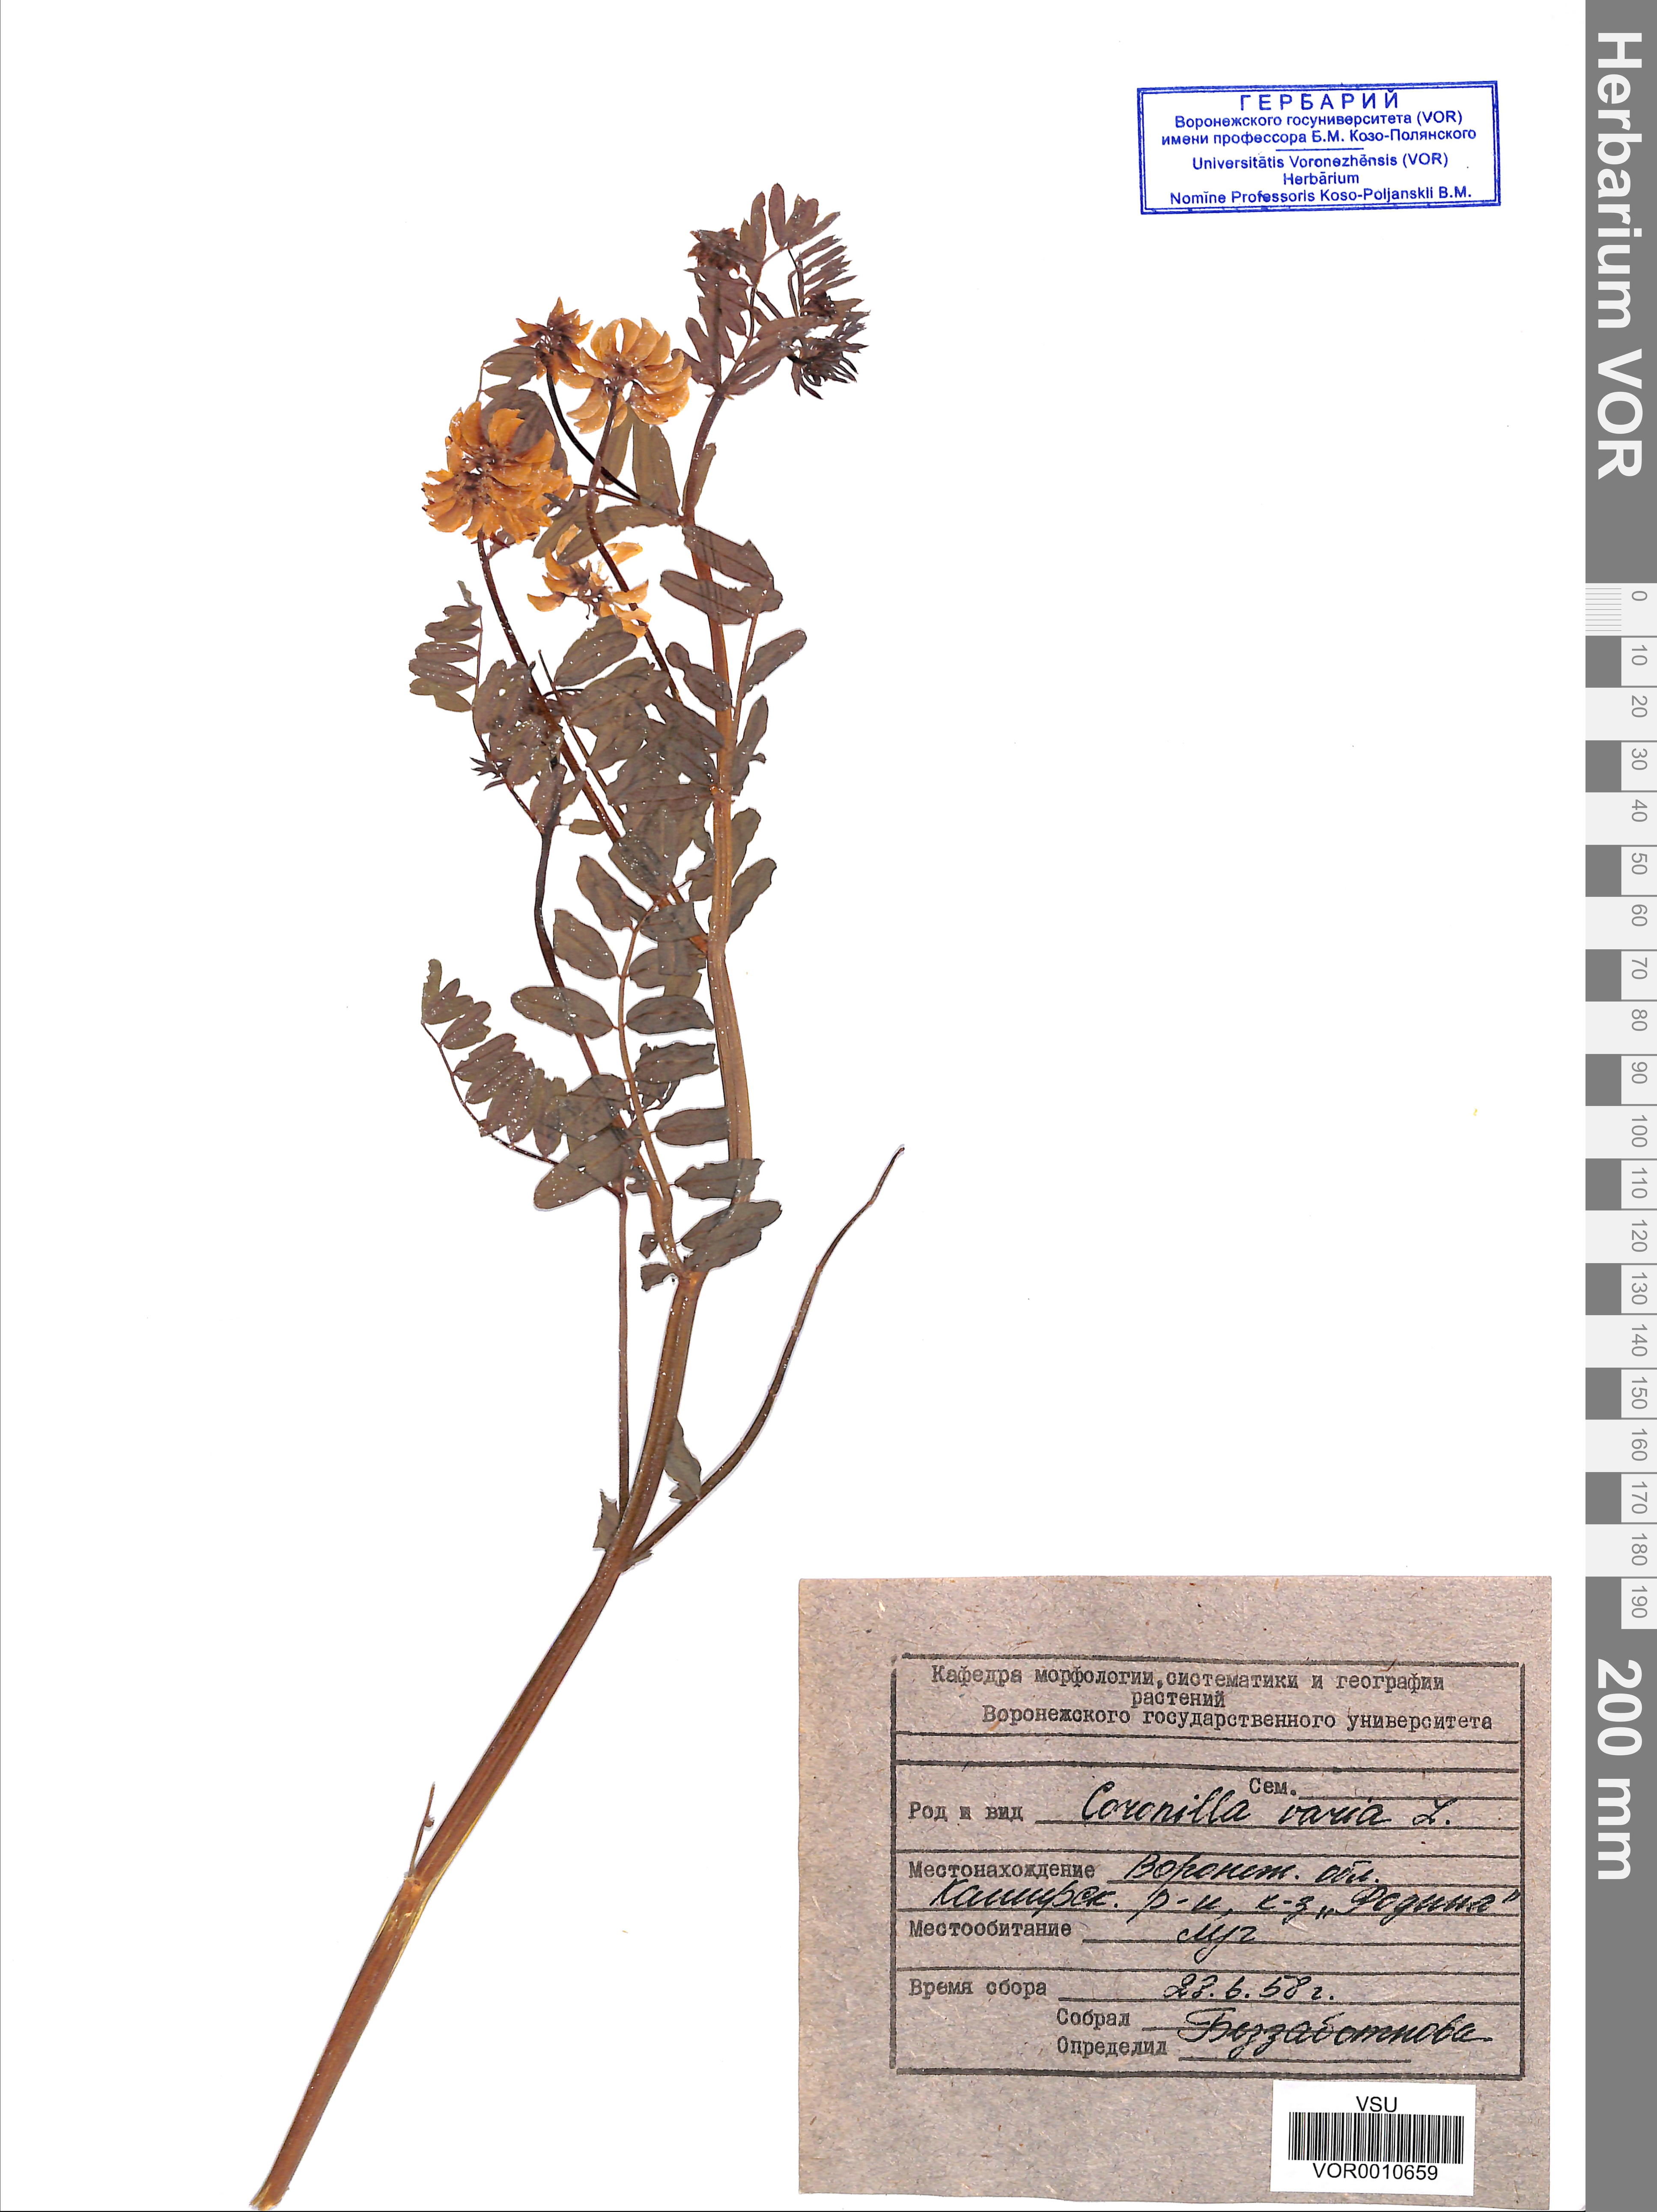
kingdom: Plantae
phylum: Tracheophyta
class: Magnoliopsida
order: Fabales
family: Fabaceae
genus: Coronilla
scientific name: Coronilla varia
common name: Crownvetch
